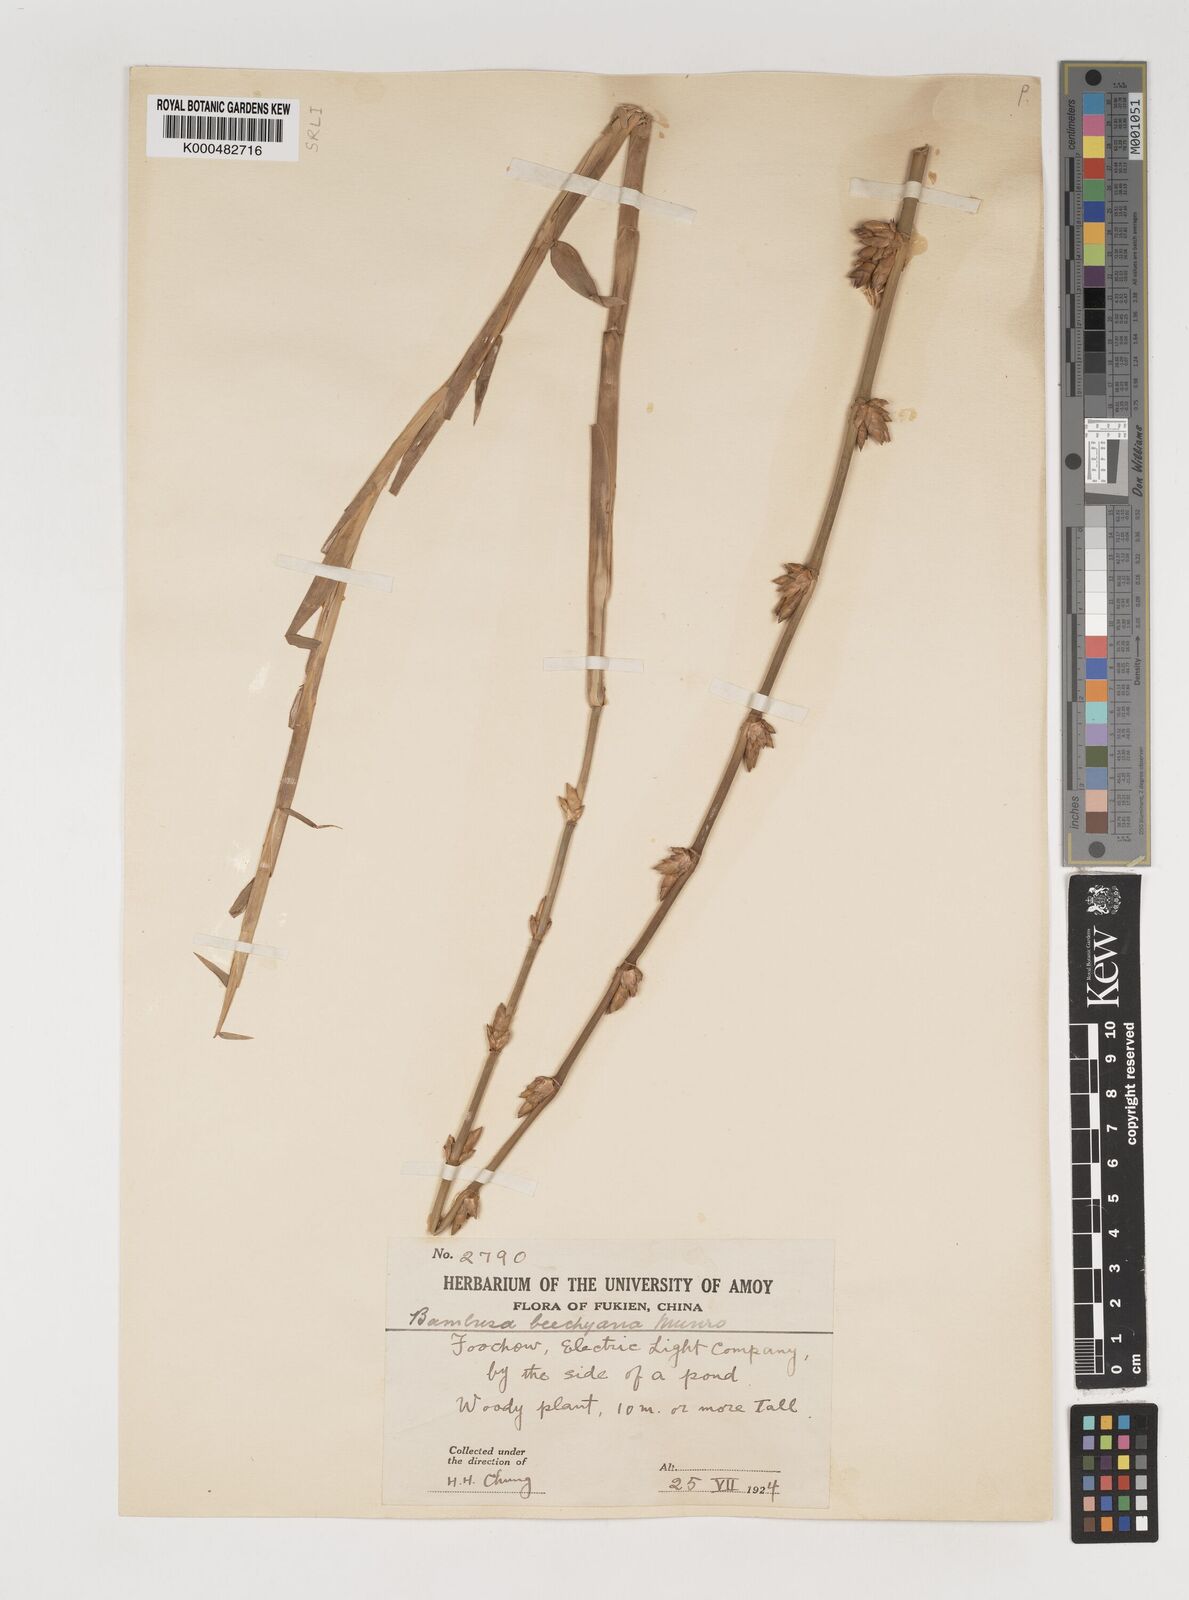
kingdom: Plantae
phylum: Tracheophyta
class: Liliopsida
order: Poales
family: Poaceae
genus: Bambusa
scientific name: Bambusa beecheyana
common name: Beechey's bamboo
